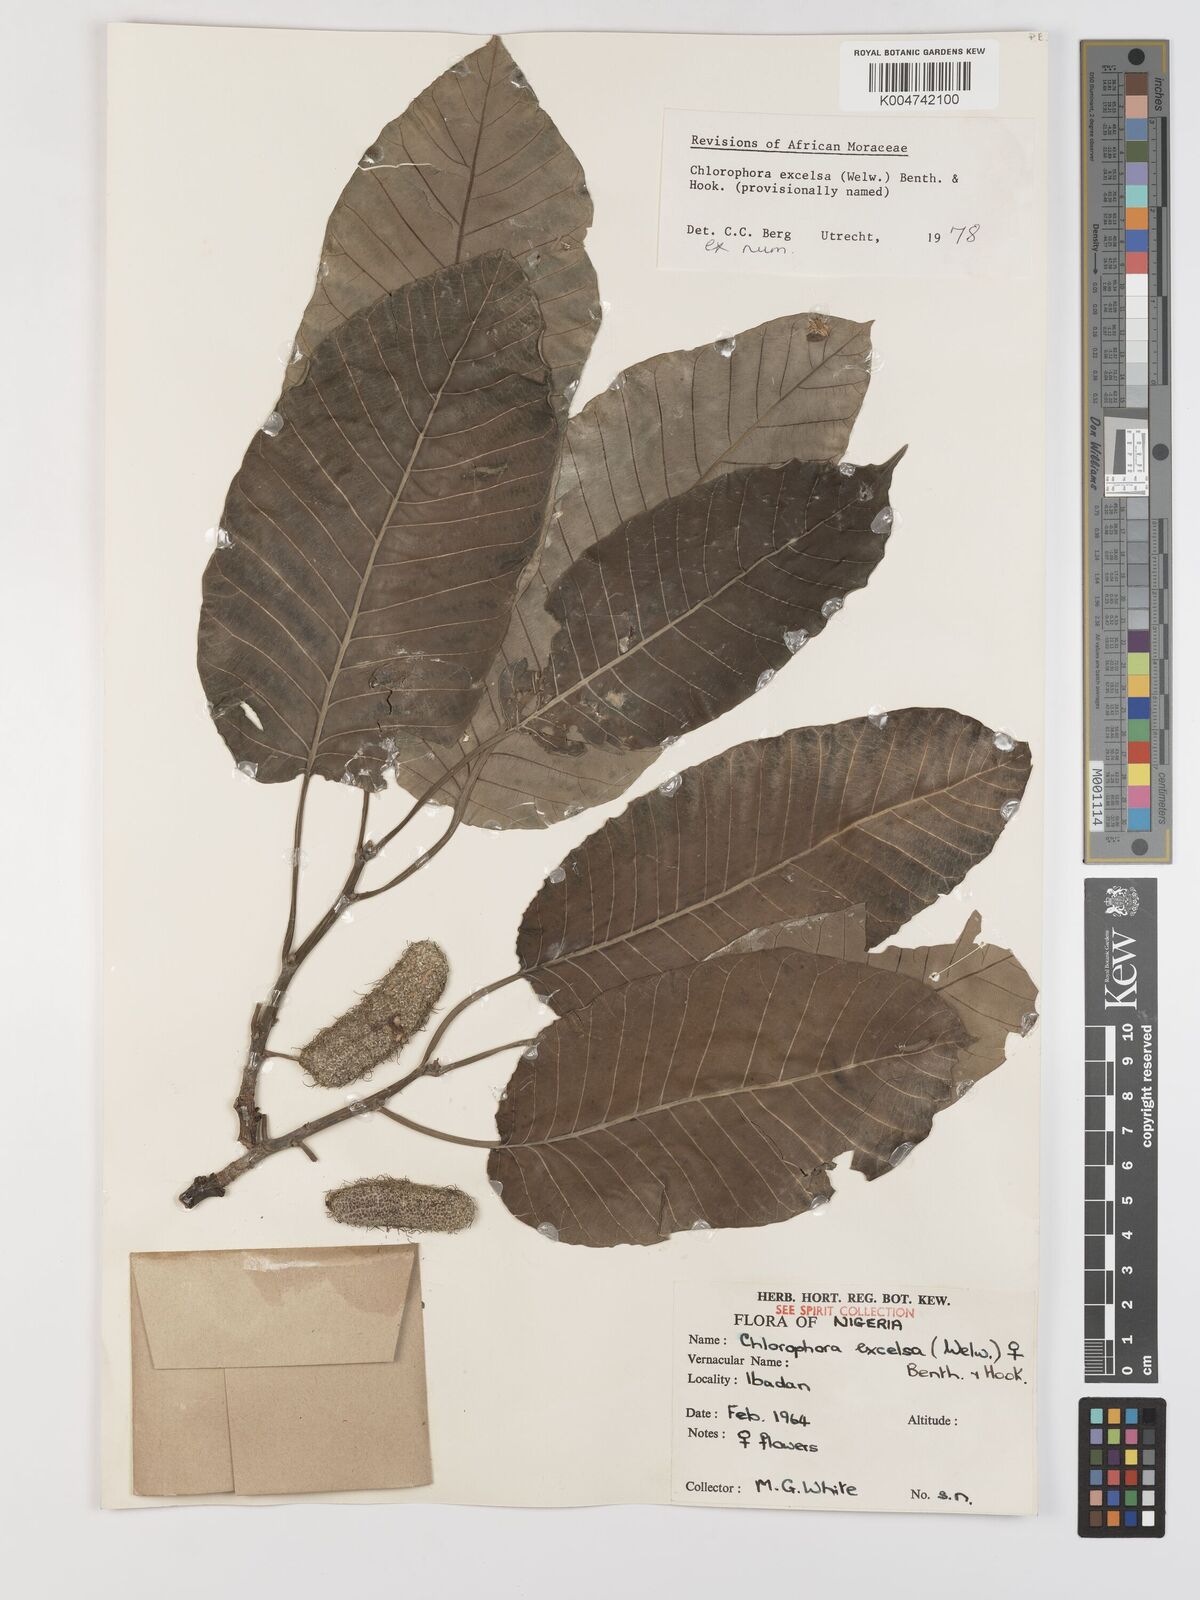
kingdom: Plantae
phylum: Tracheophyta
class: Magnoliopsida
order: Rosales
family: Moraceae
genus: Milicia
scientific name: Milicia excelsa
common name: African teak
